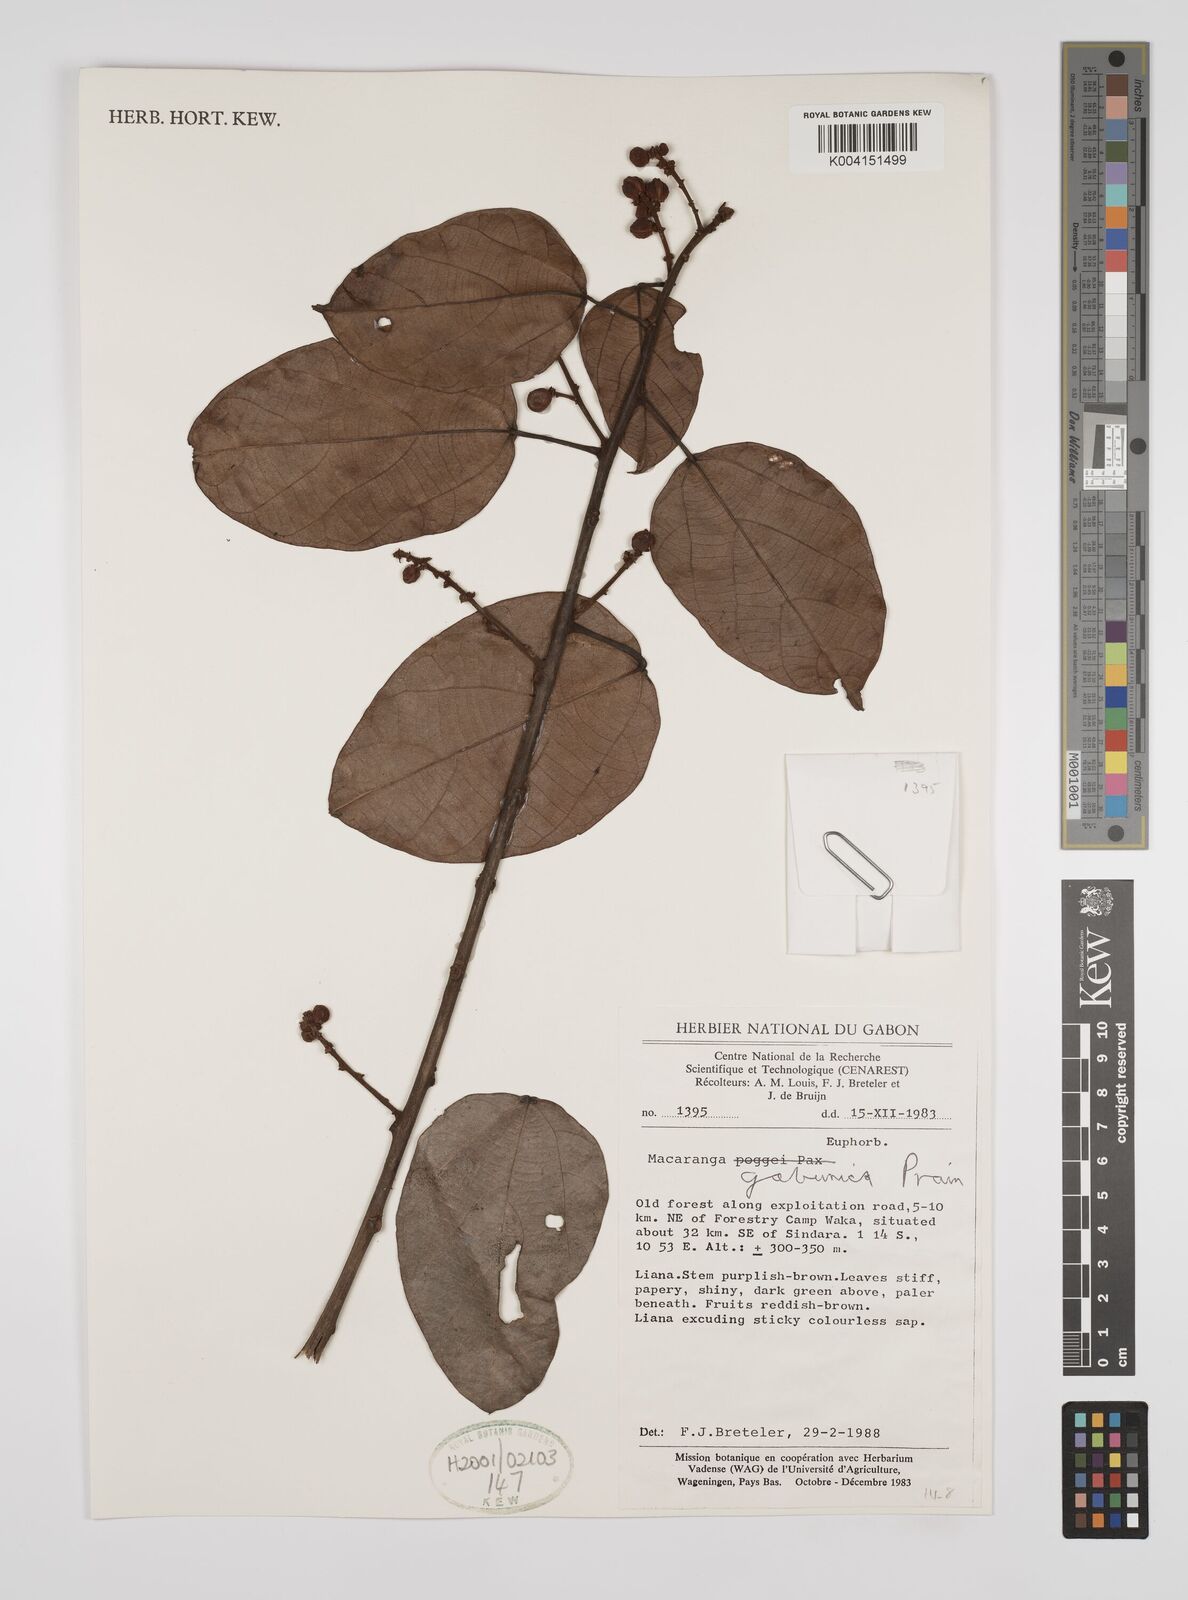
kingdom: Plantae
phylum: Tracheophyta
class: Magnoliopsida
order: Malpighiales
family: Euphorbiaceae
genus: Macaranga
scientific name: Macaranga gabunica
